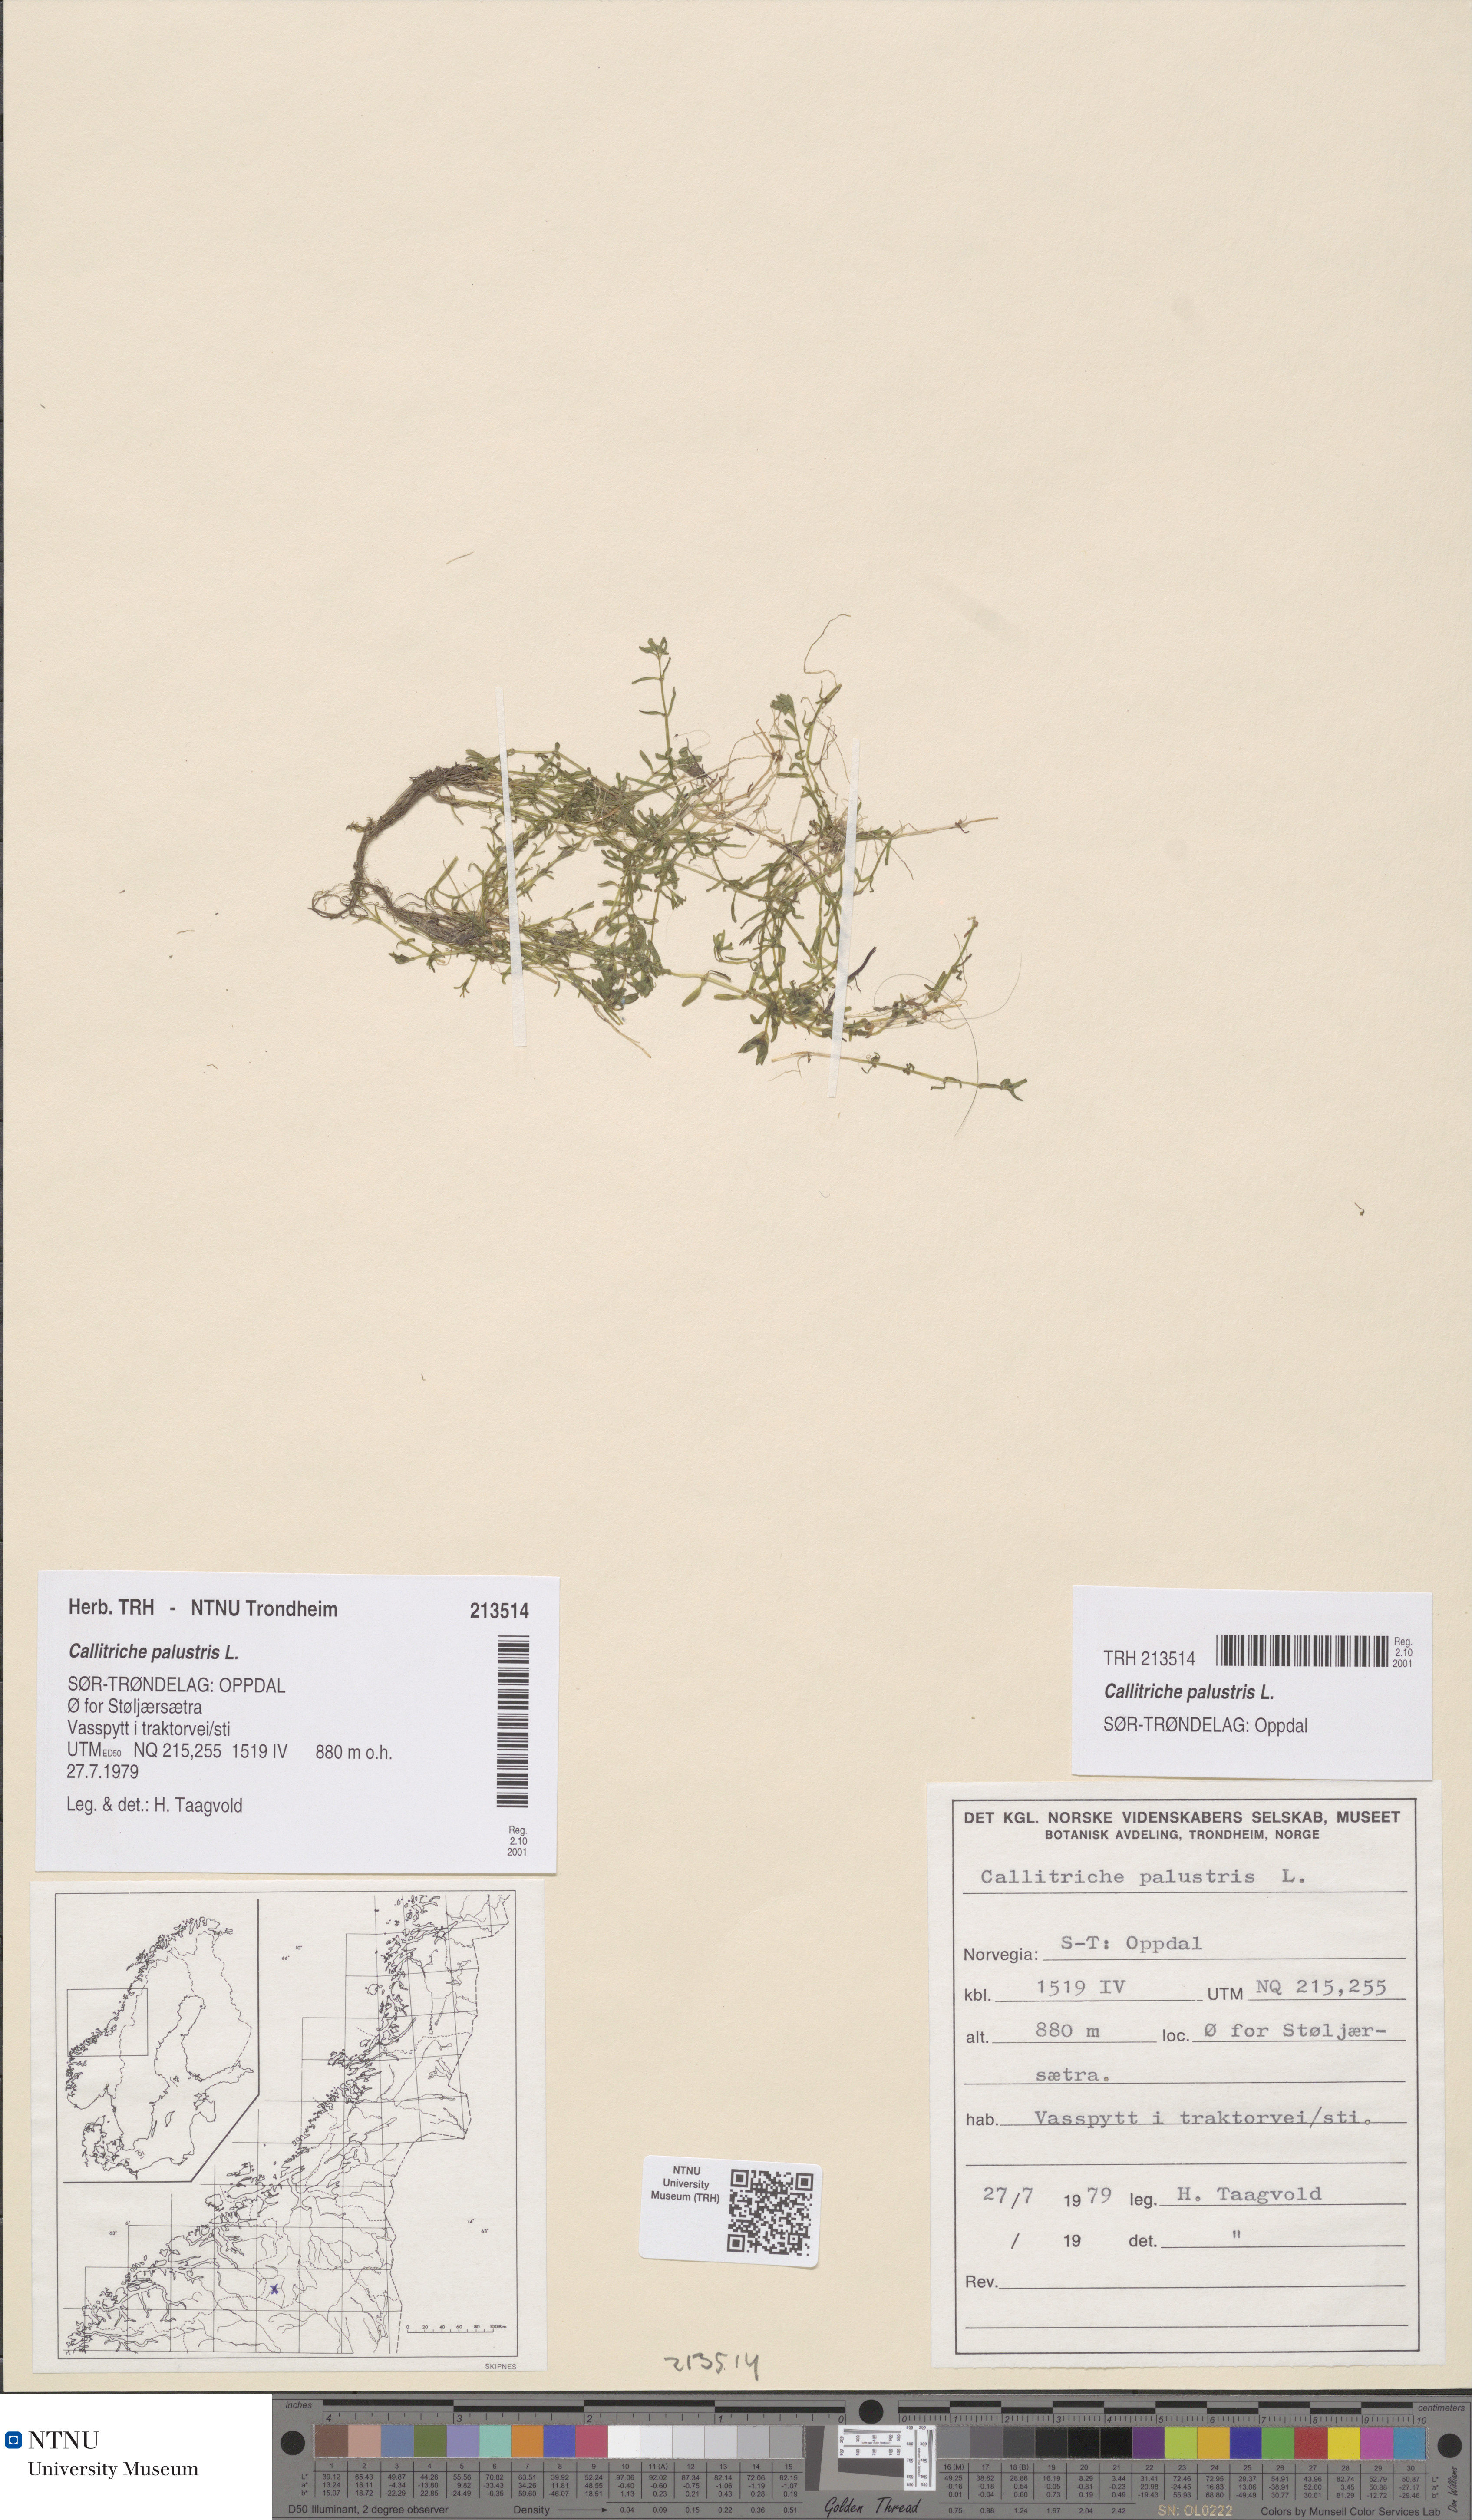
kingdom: Plantae
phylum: Tracheophyta
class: Magnoliopsida
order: Lamiales
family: Plantaginaceae
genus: Callitriche
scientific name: Callitriche palustris
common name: Spring water-starwort
